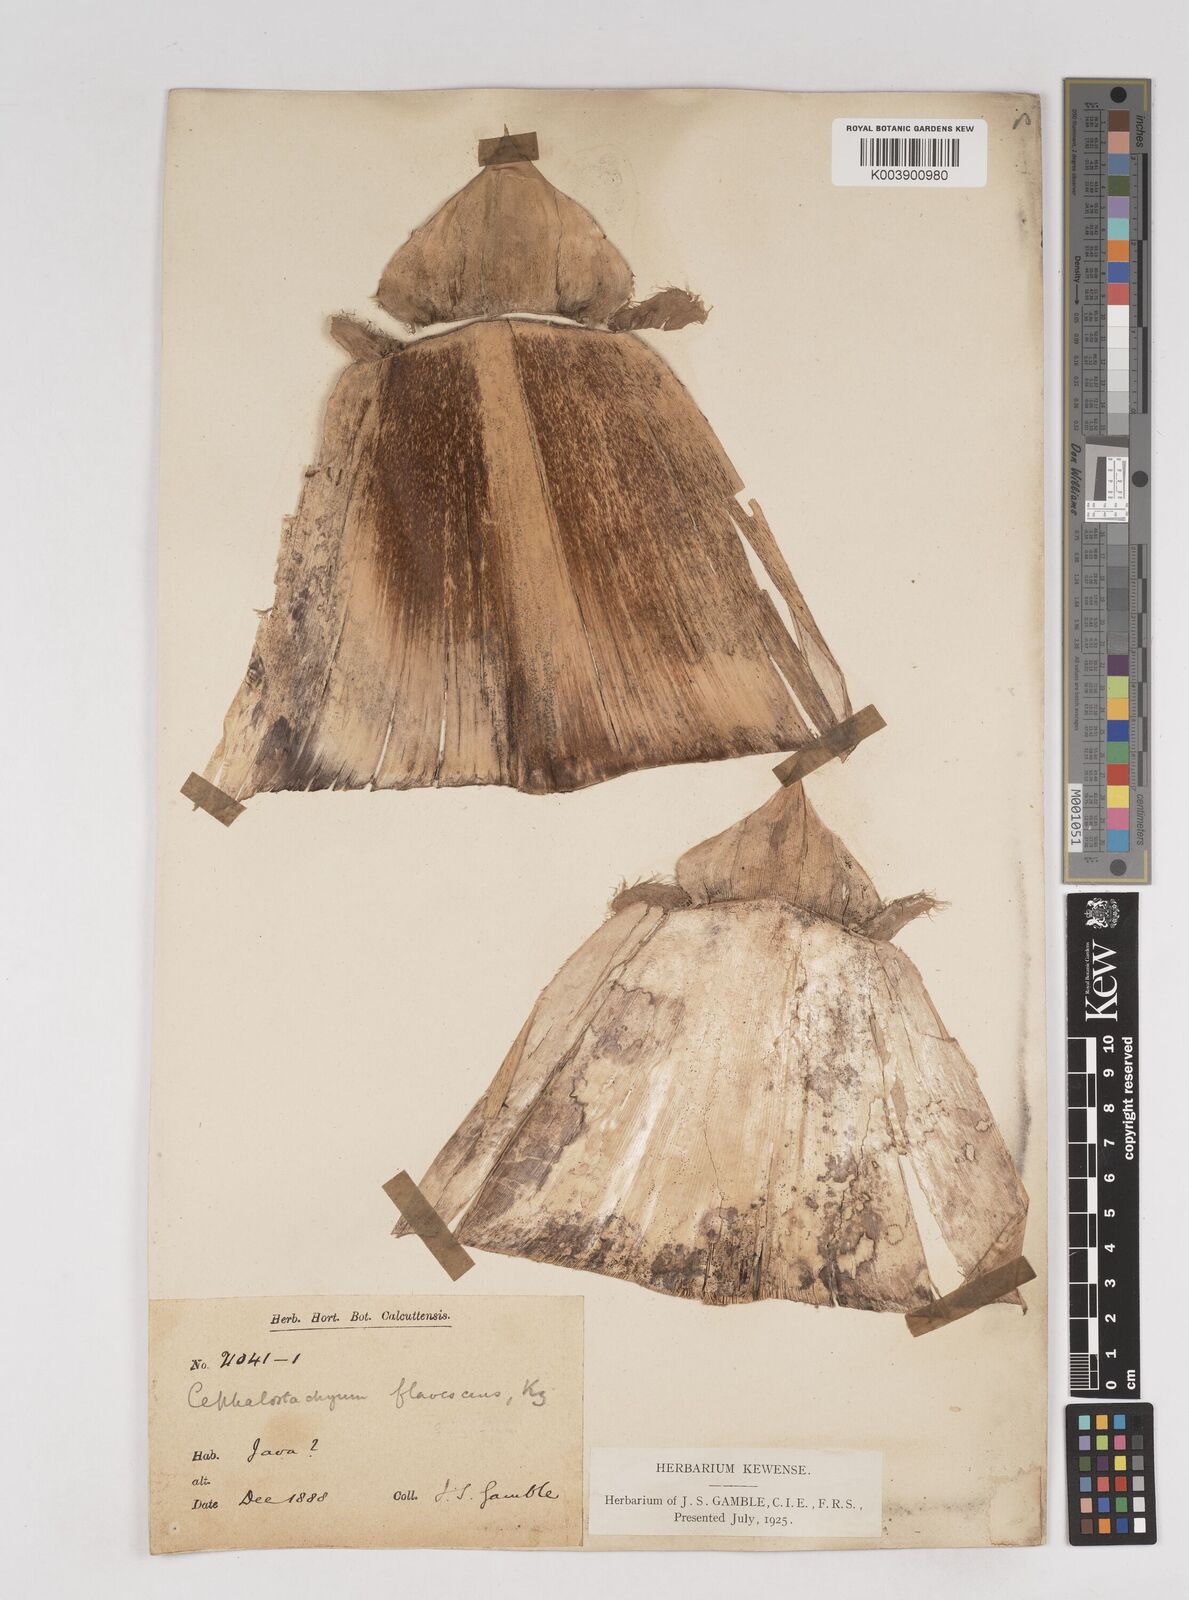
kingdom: Plantae
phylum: Tracheophyta
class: Liliopsida
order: Poales
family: Poaceae
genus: Cephalostachyum
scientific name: Cephalostachyum flavescens
